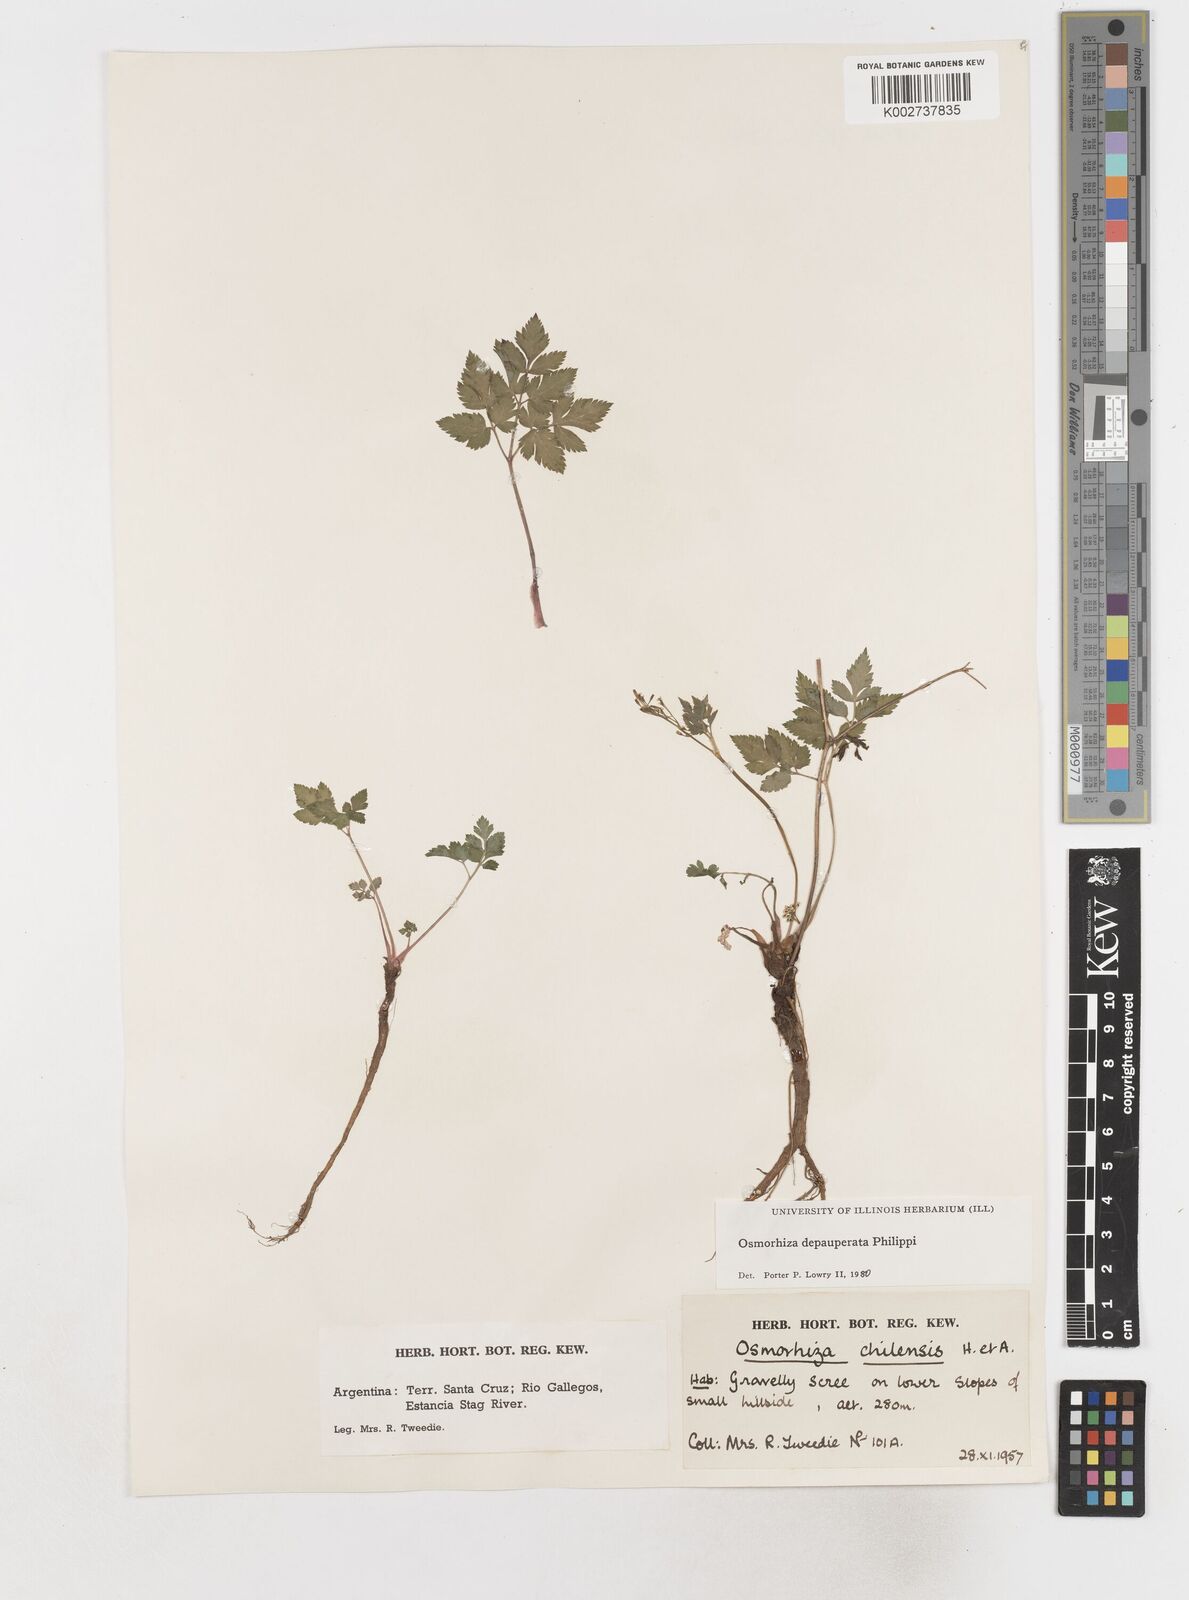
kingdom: Plantae
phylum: Tracheophyta
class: Magnoliopsida
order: Apiales
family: Apiaceae
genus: Osmorhiza
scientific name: Osmorhiza depauperata
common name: Blunt sweet cicely
